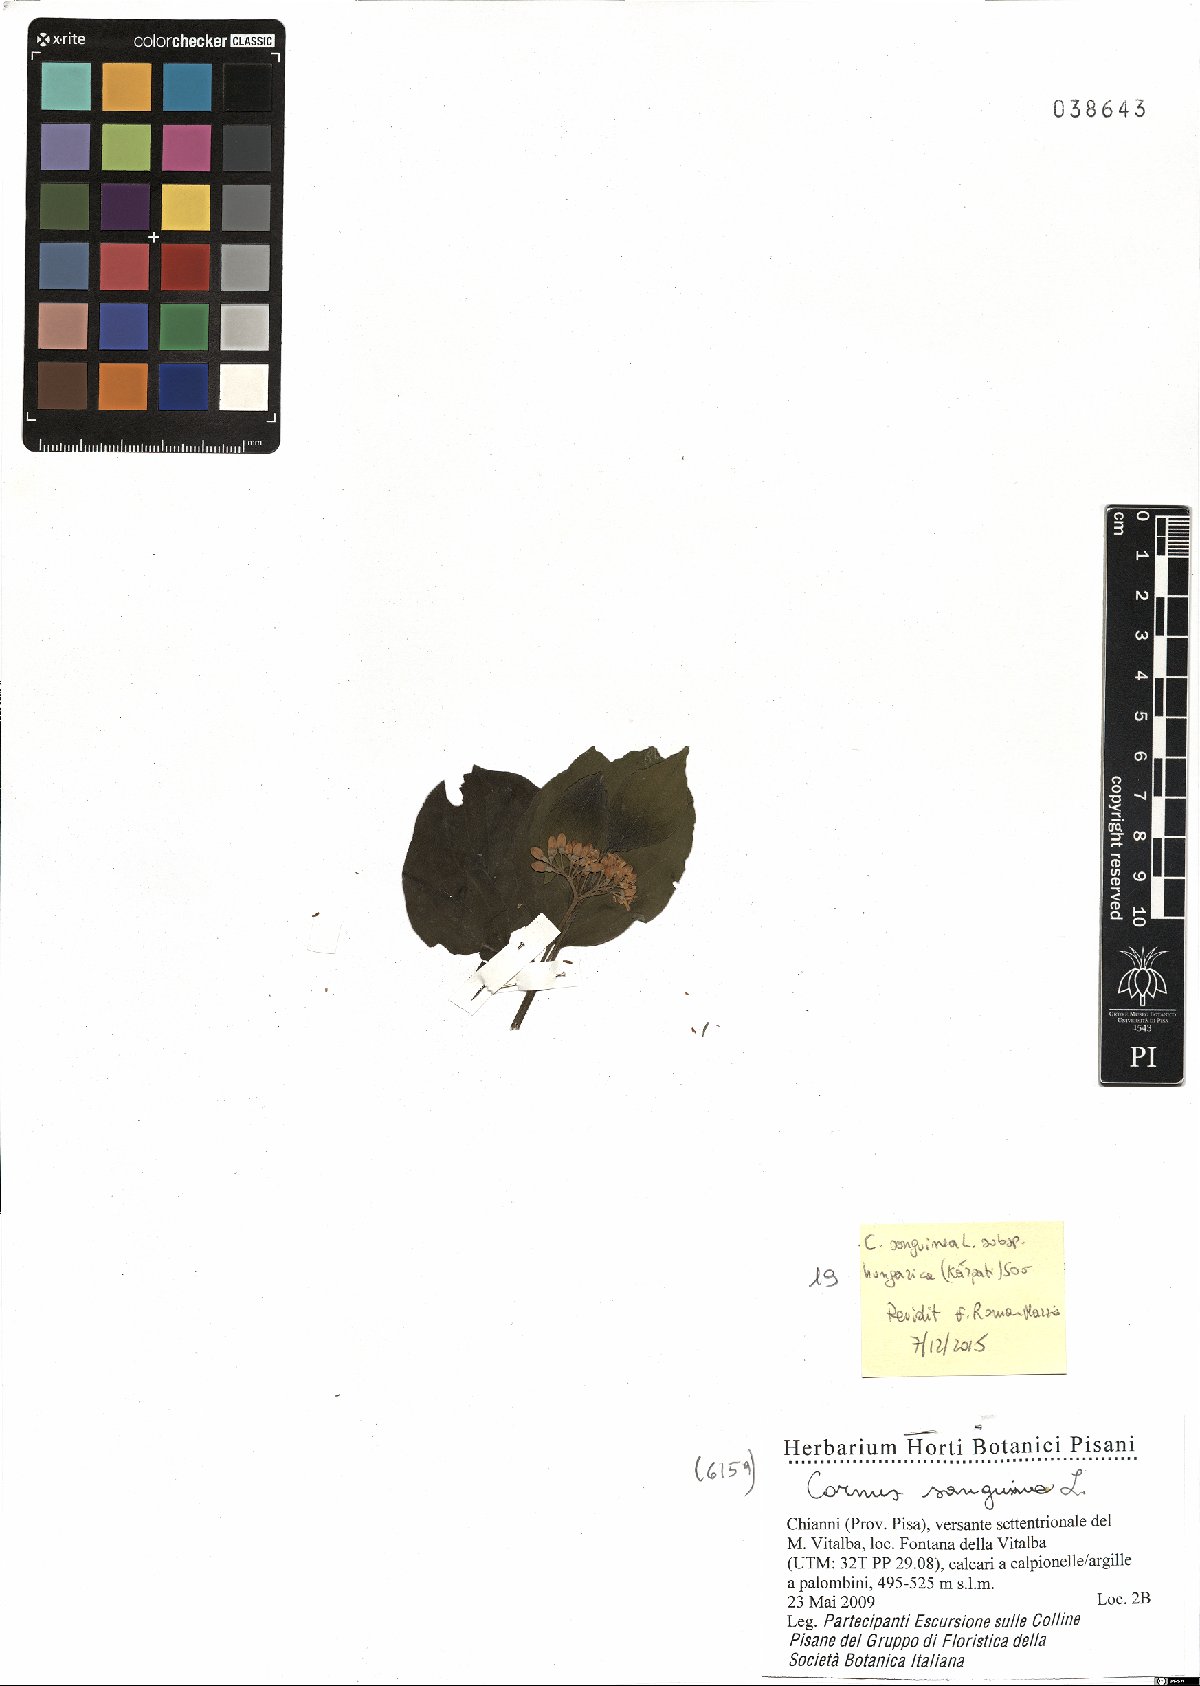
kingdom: Plantae
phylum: Tracheophyta
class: Magnoliopsida
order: Cornales
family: Cornaceae
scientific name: Cornaceae
